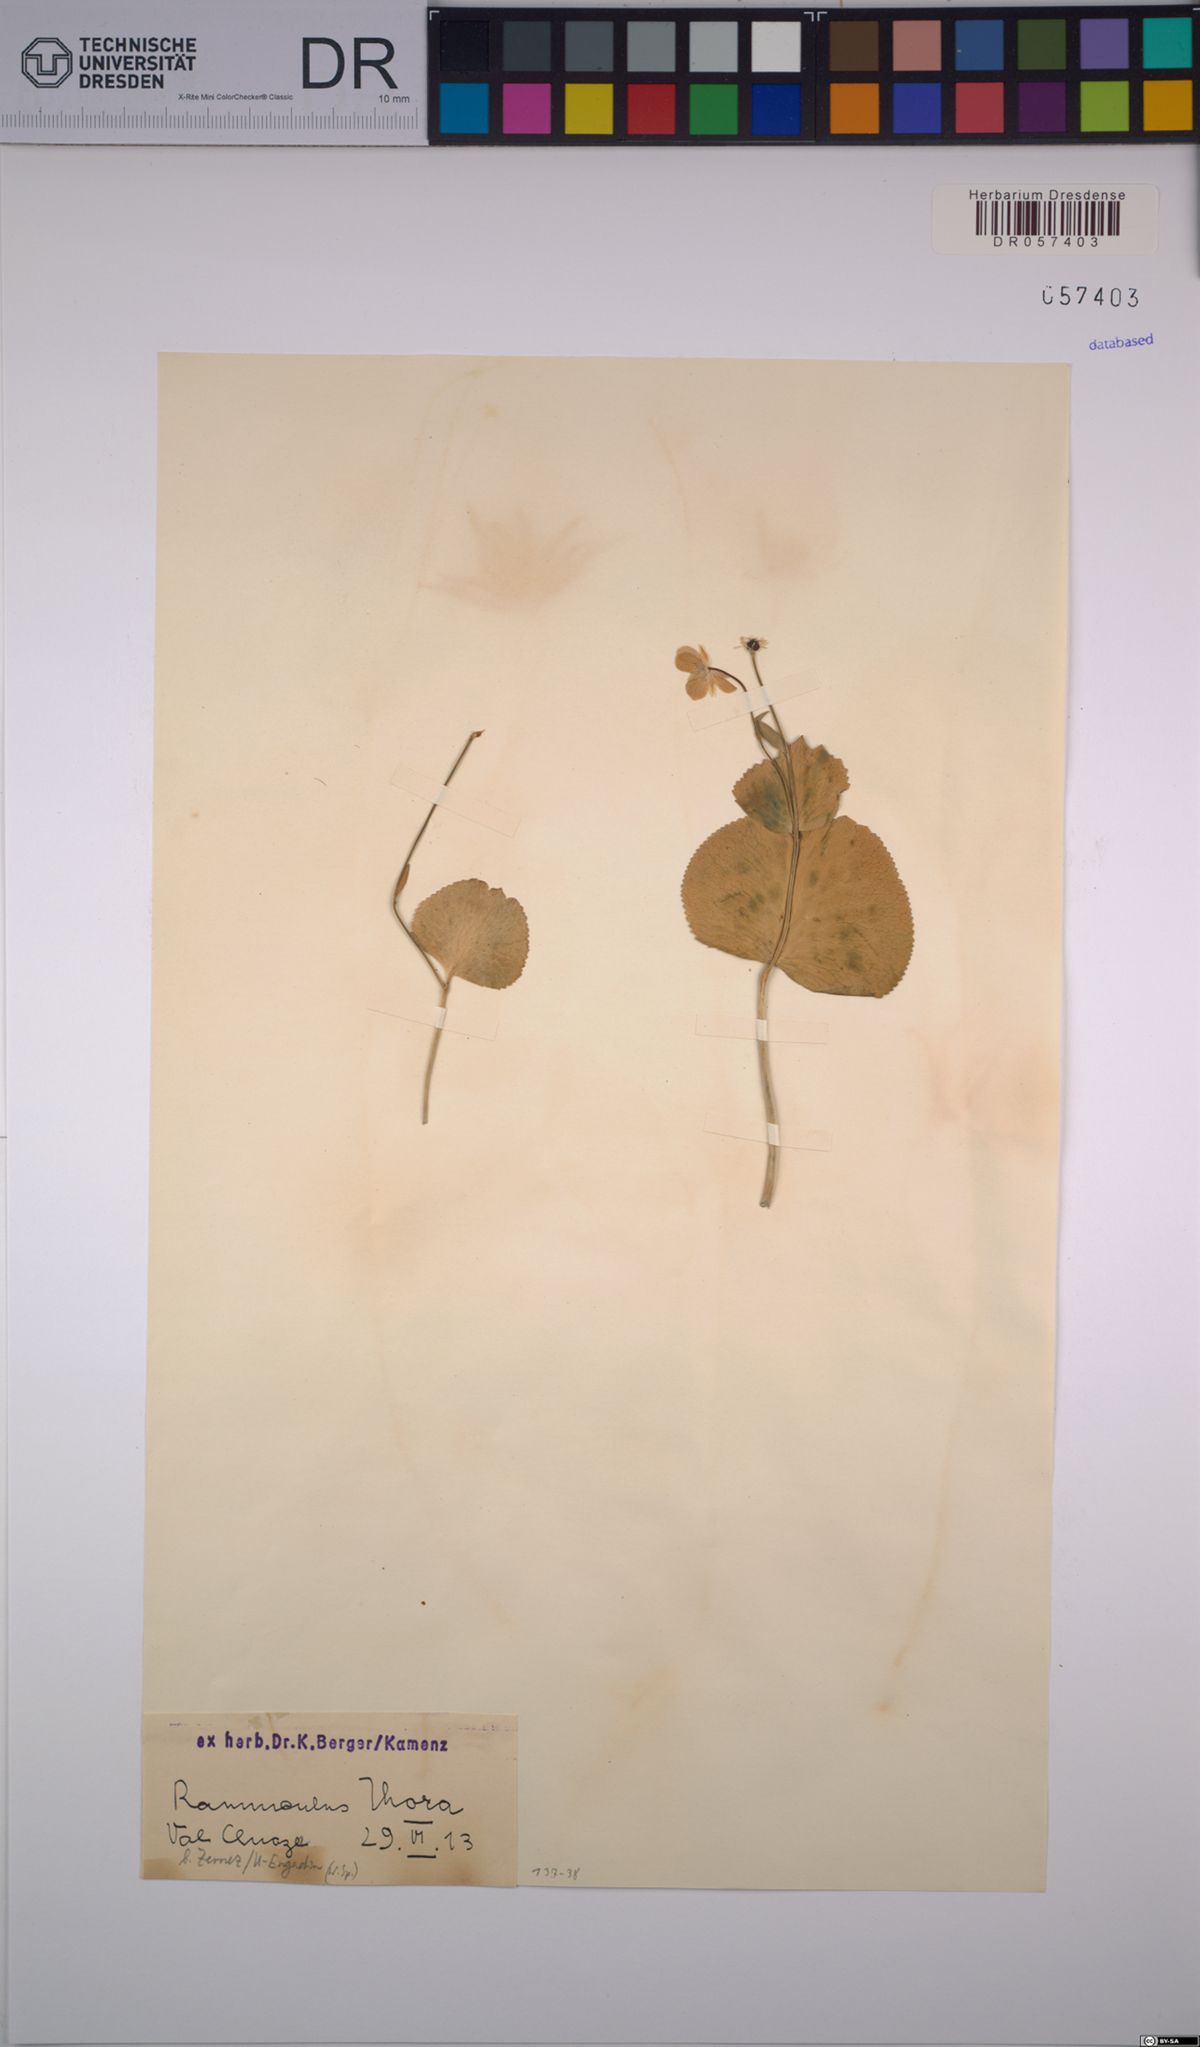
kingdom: Plantae
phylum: Tracheophyta
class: Magnoliopsida
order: Ranunculales
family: Ranunculaceae
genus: Ranunculus
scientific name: Ranunculus thora
